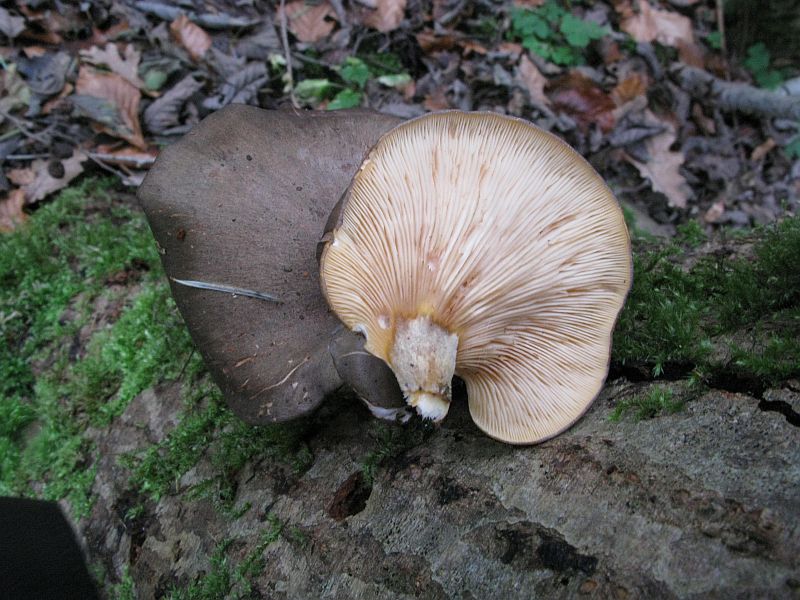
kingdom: Fungi
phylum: Basidiomycota
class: Agaricomycetes
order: Agaricales
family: Sarcomyxaceae
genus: Sarcomyxa
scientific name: Sarcomyxa serotina
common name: gummihat
